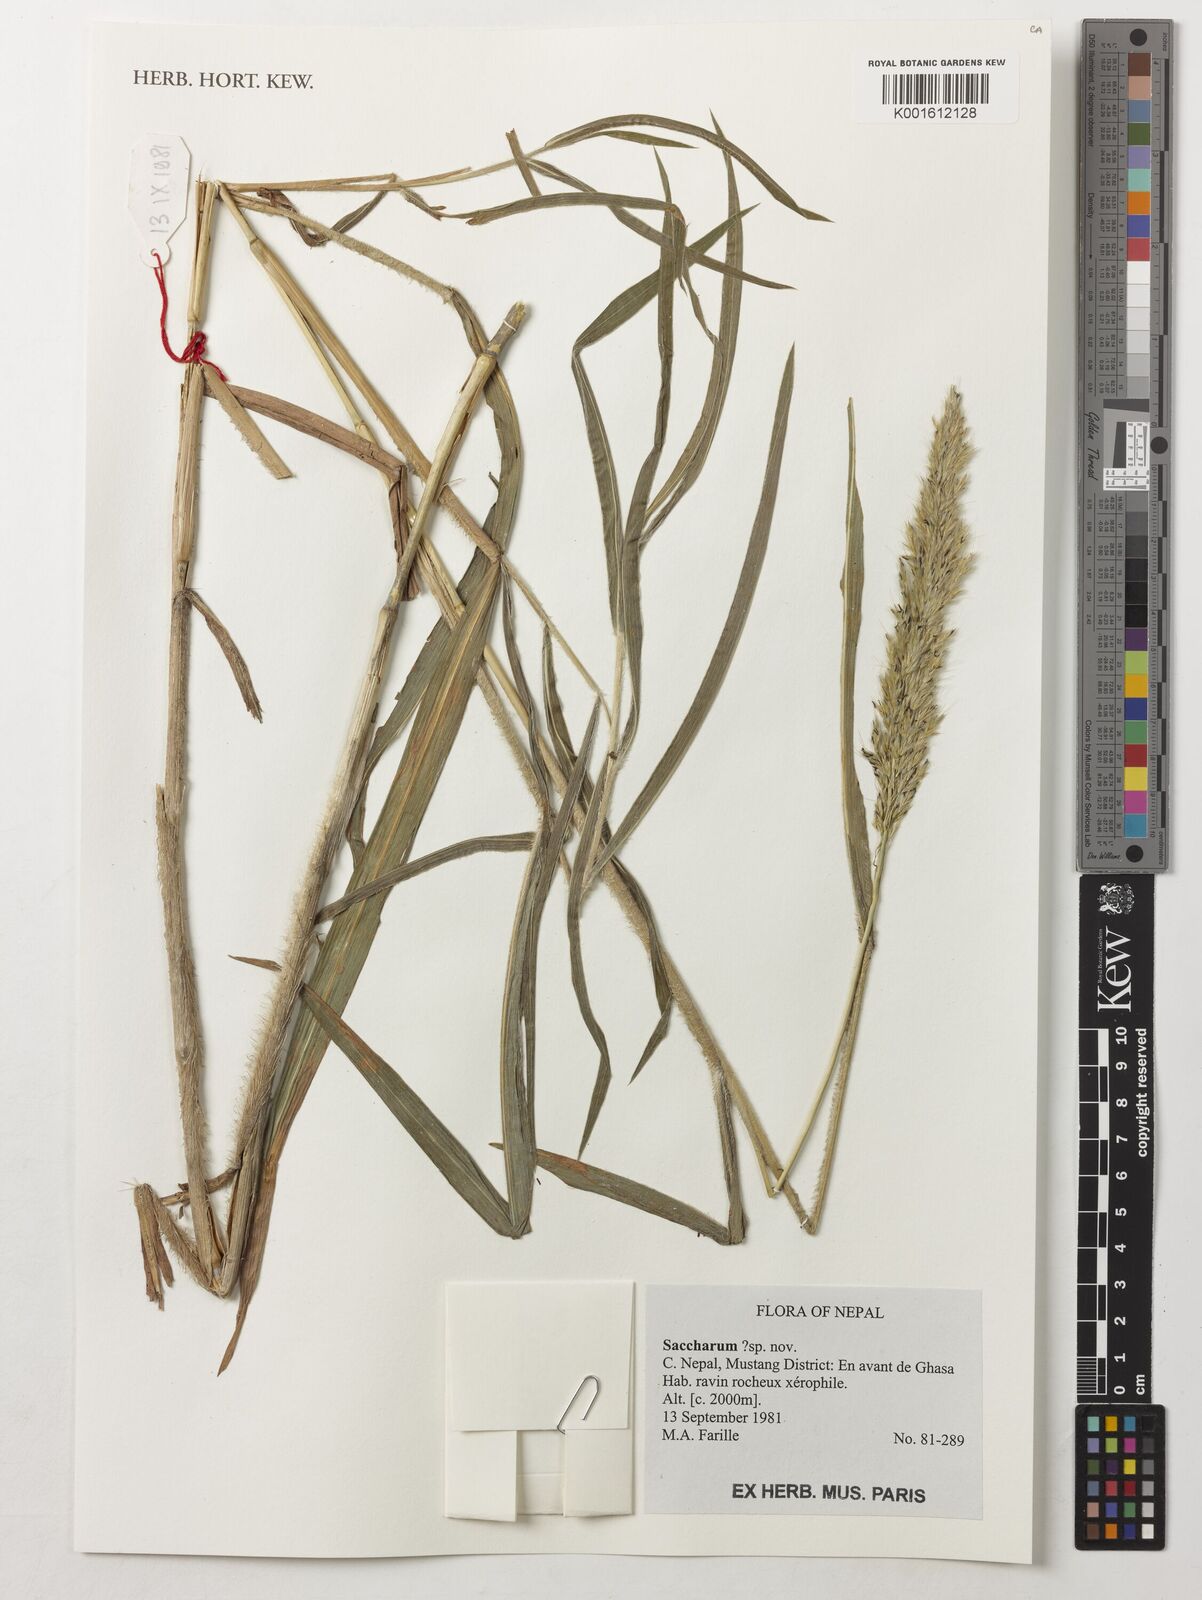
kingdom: Plantae
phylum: Tracheophyta
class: Liliopsida
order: Poales
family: Poaceae
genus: Saccharum
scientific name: Saccharum
